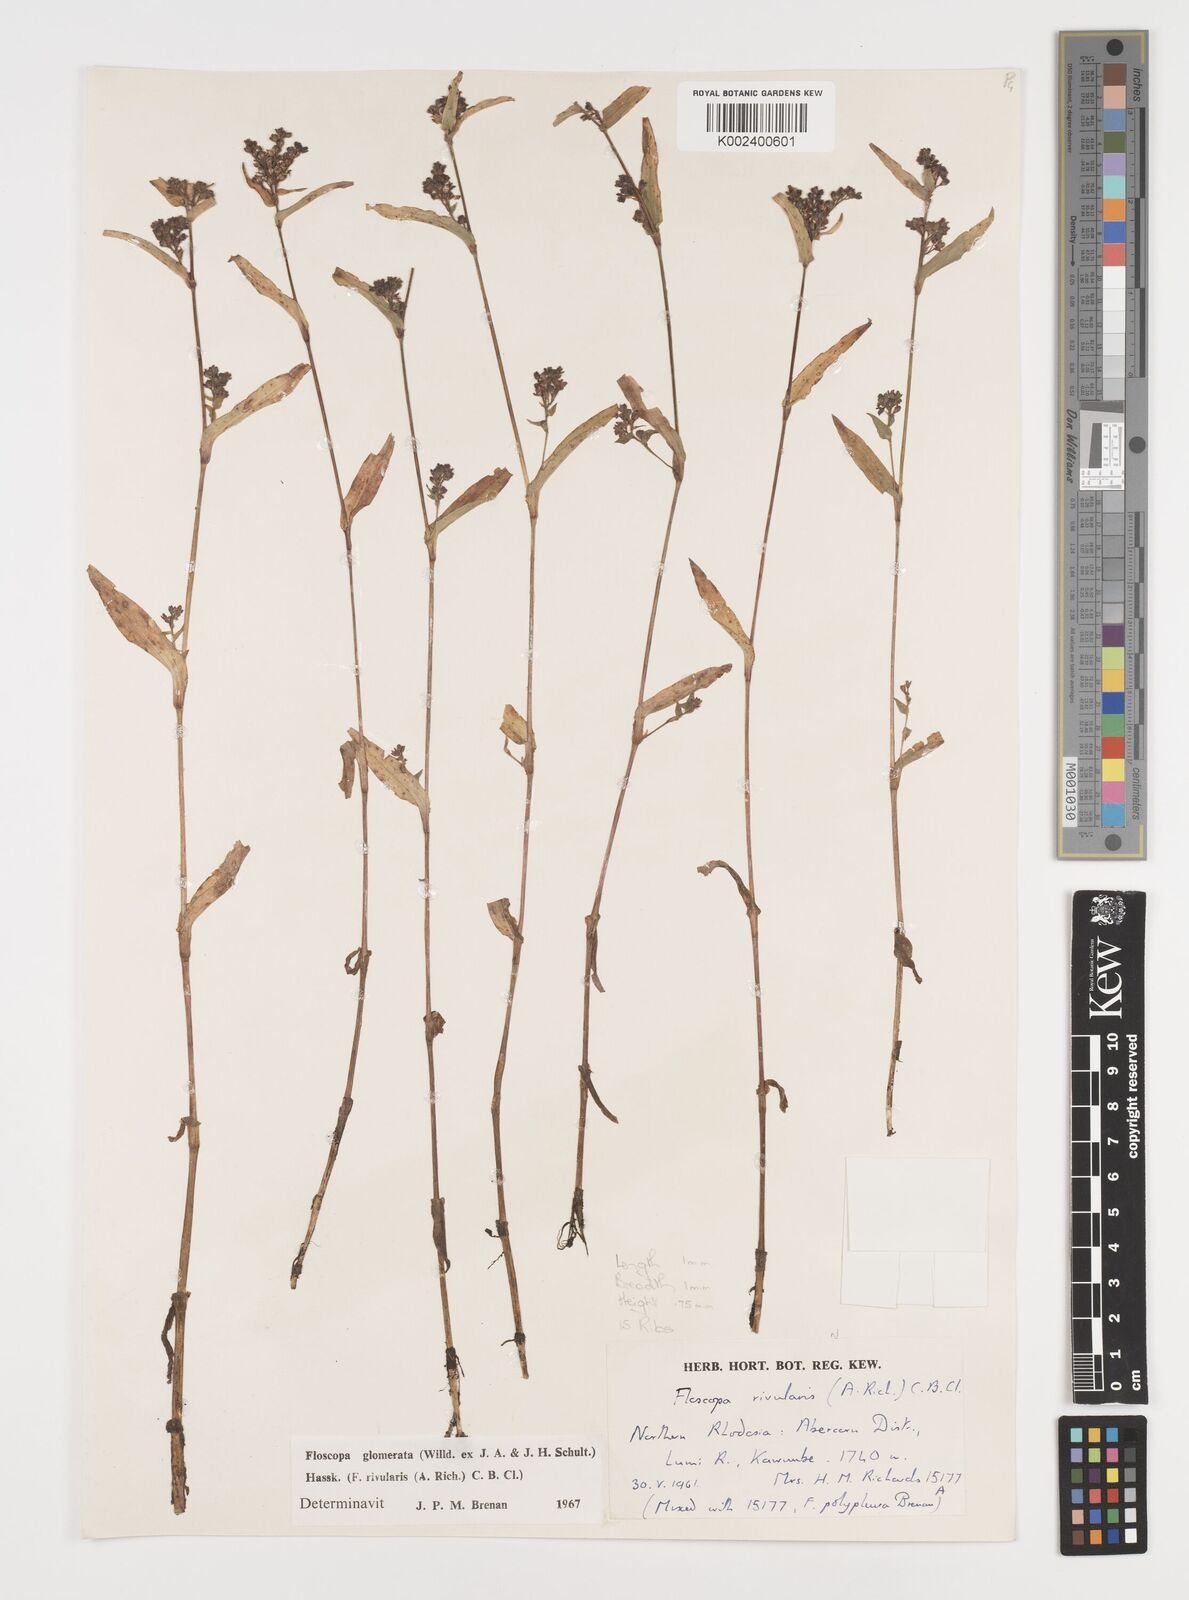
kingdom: Plantae
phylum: Tracheophyta
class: Liliopsida
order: Commelinales
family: Commelinaceae
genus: Floscopa
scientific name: Floscopa glomerata
